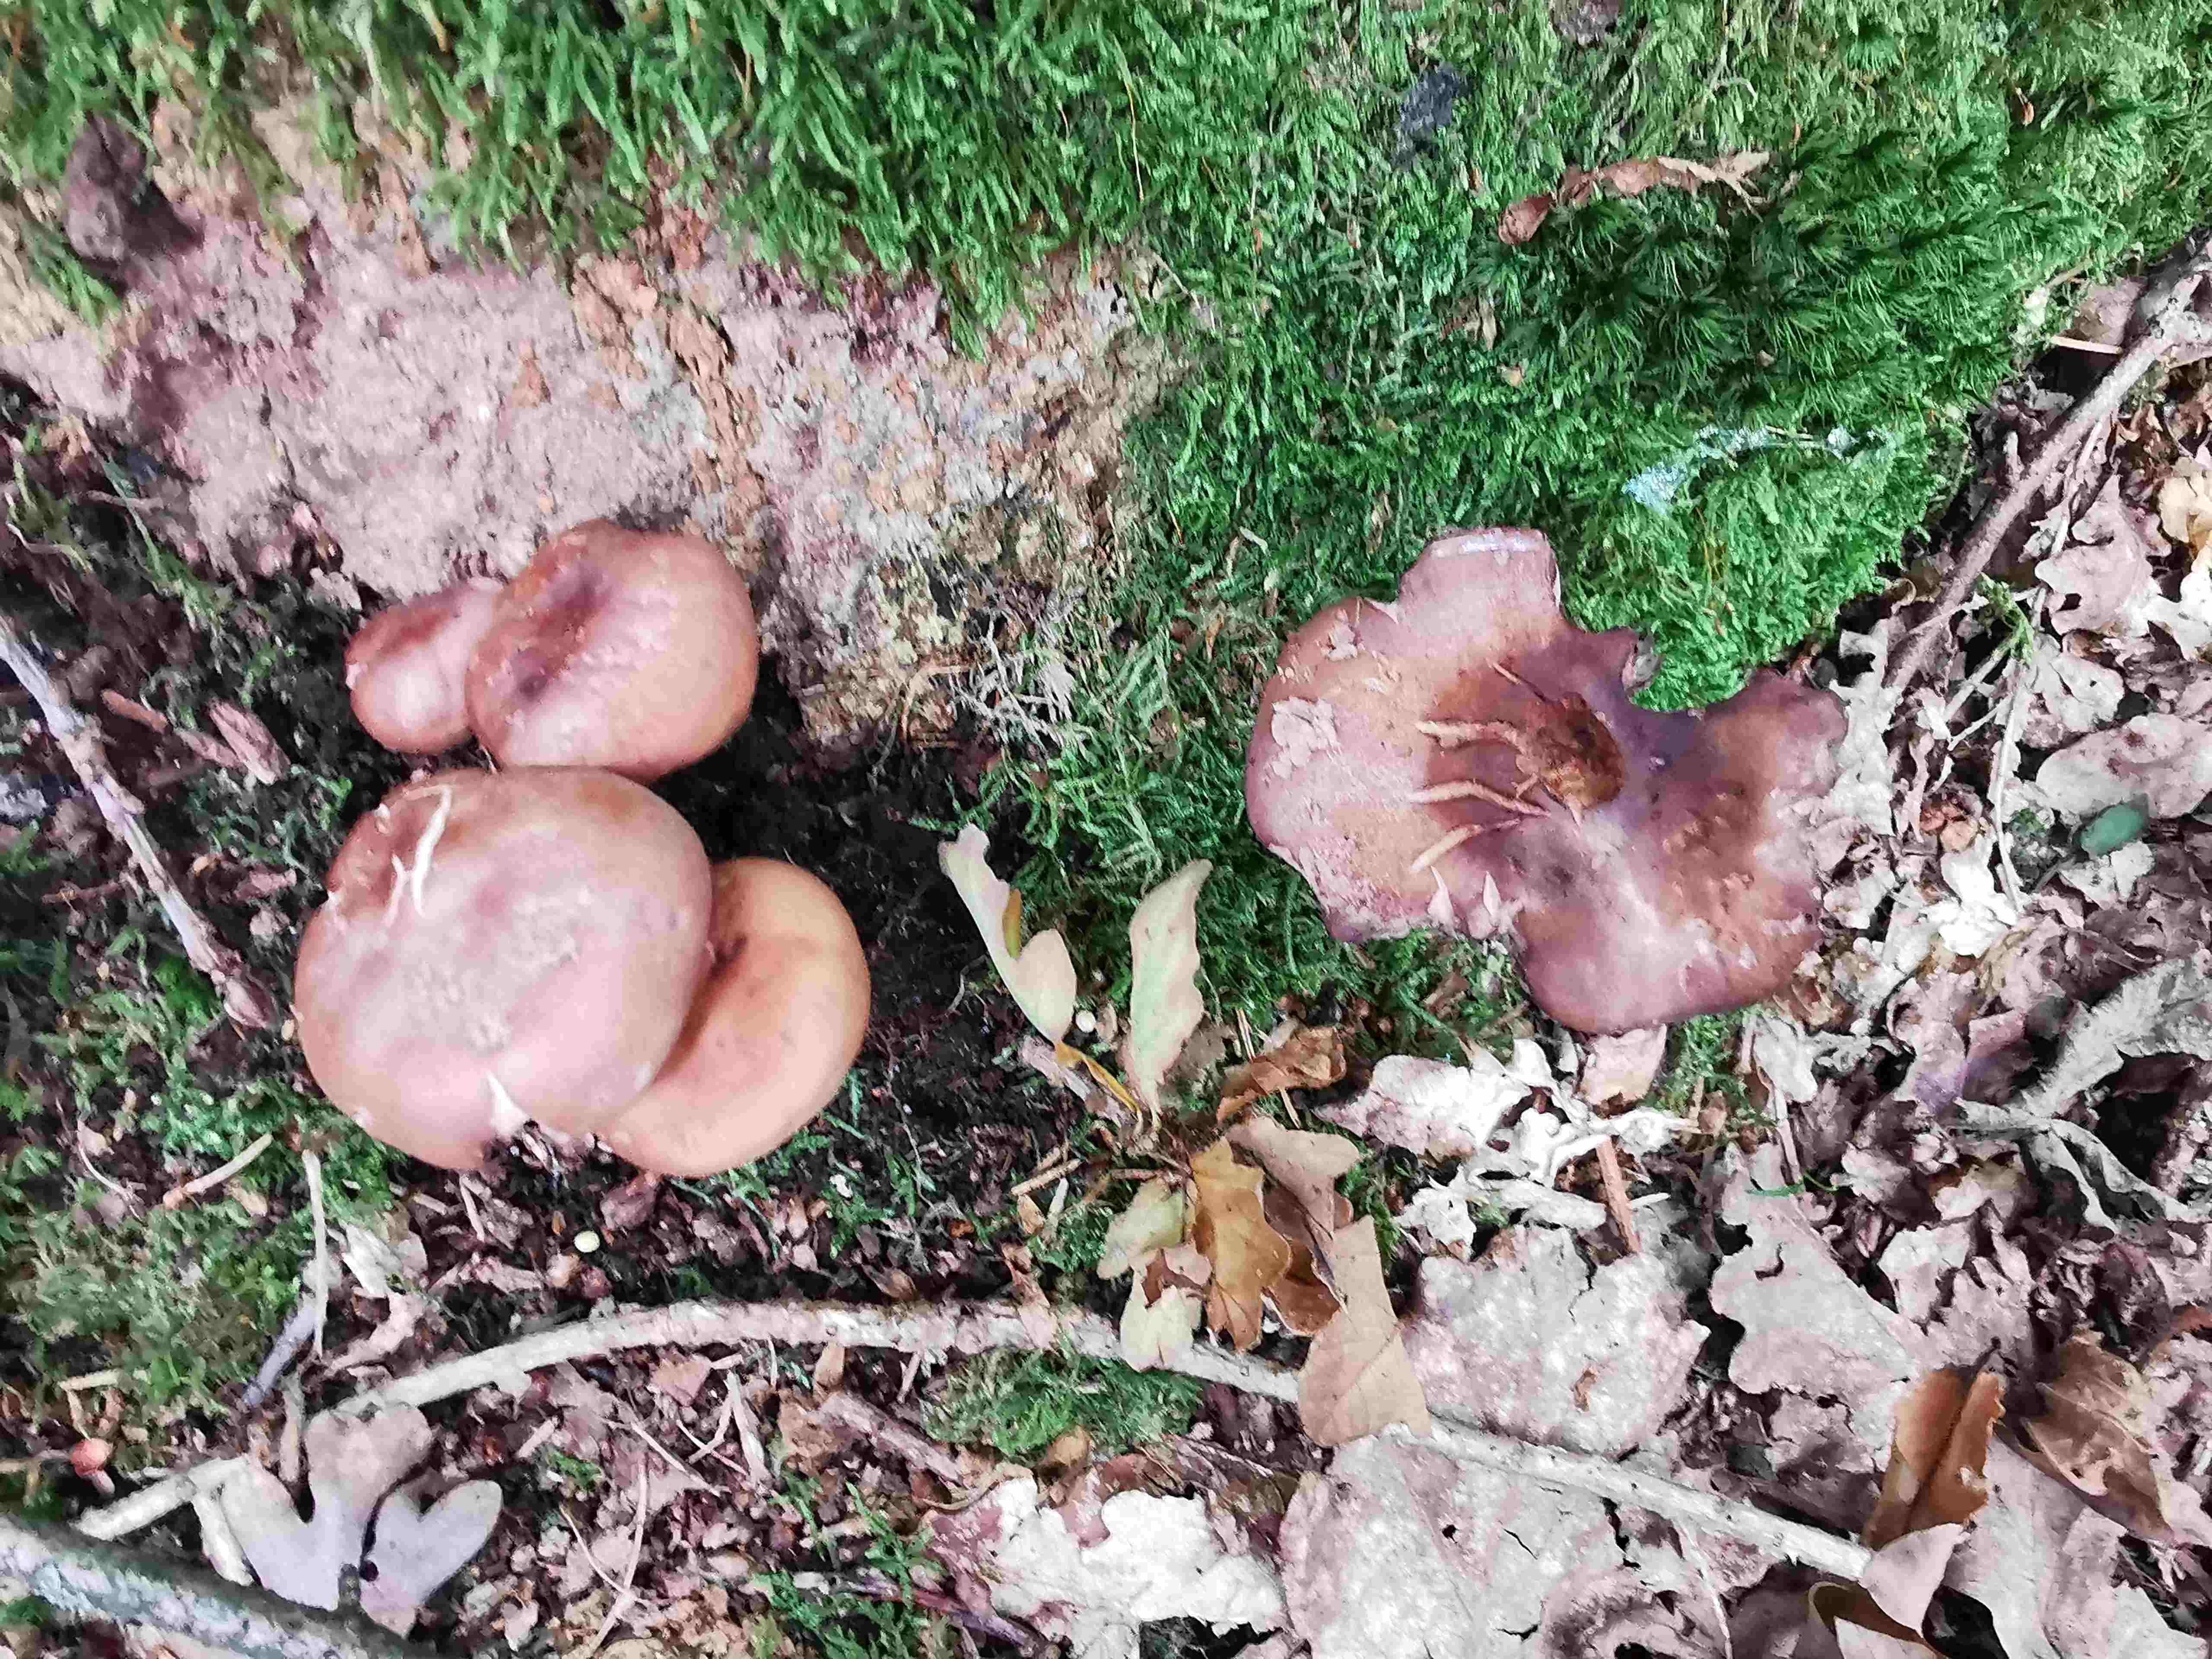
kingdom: Fungi
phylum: Basidiomycota
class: Agaricomycetes
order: Agaricales
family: Omphalotaceae
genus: Gymnopus
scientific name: Gymnopus fusipes
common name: tenstokket fladhat
